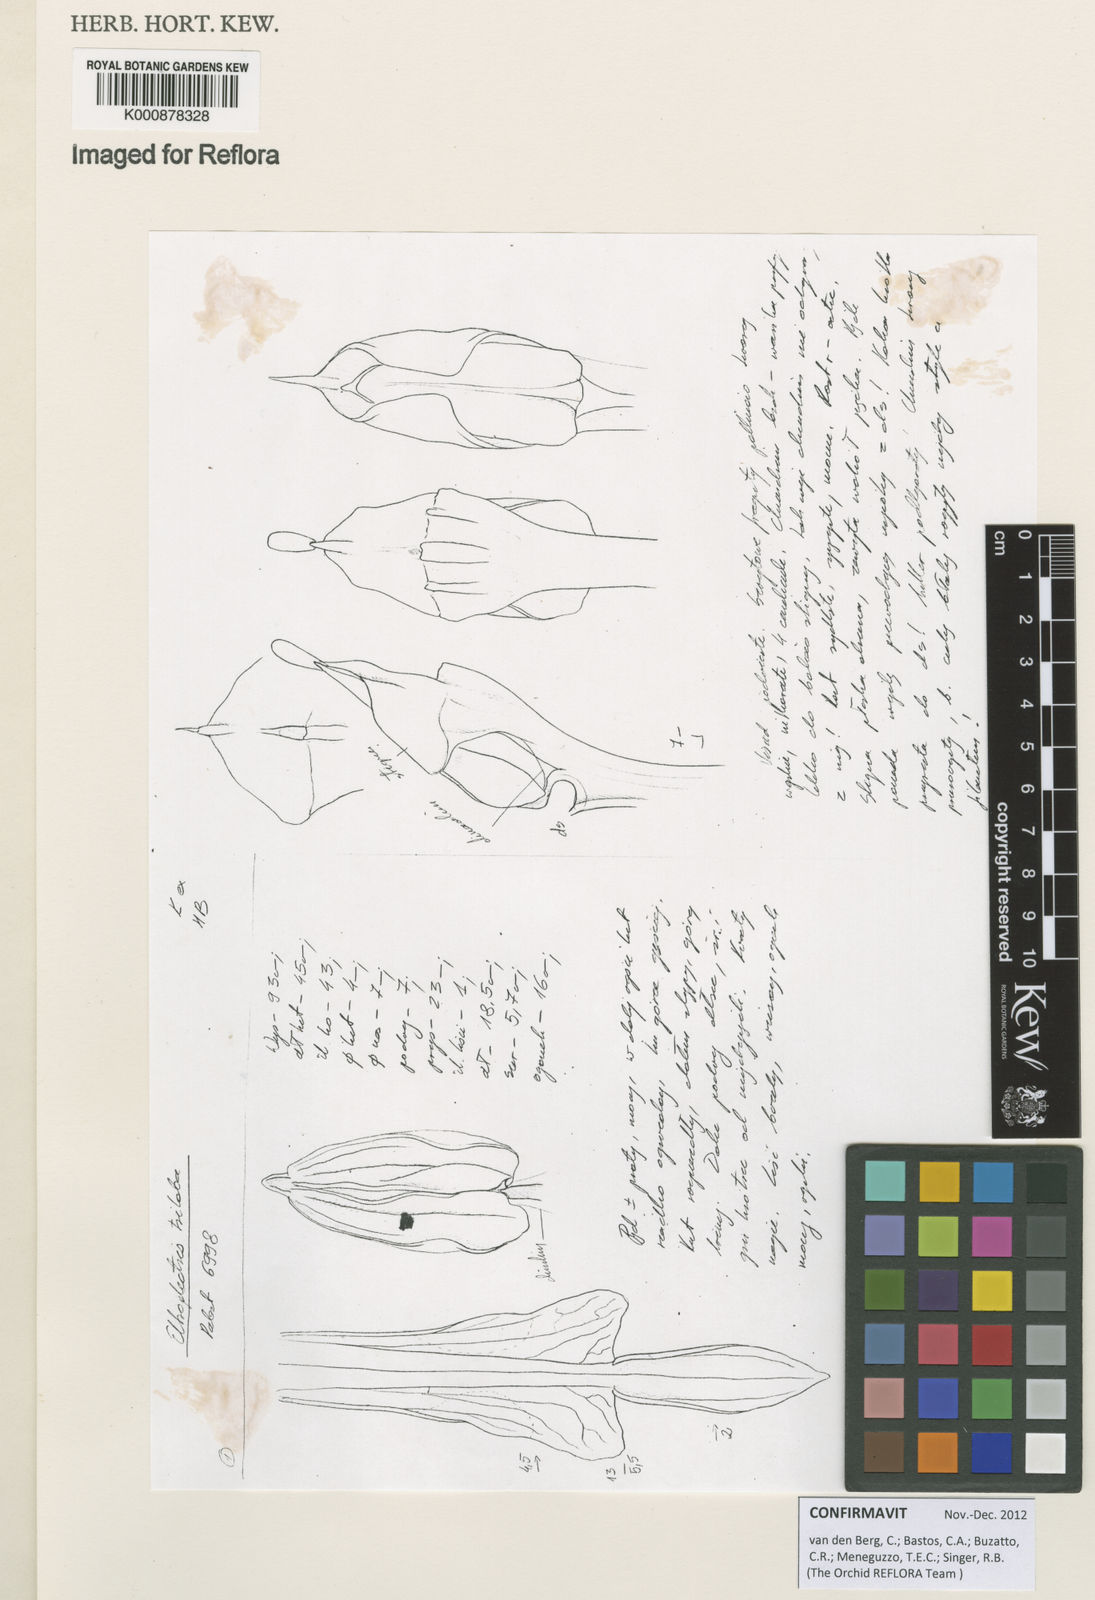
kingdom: Plantae
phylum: Tracheophyta
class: Liliopsida
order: Asparagales
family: Orchidaceae
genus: Eltroplectris
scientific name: Eltroplectris triloba
